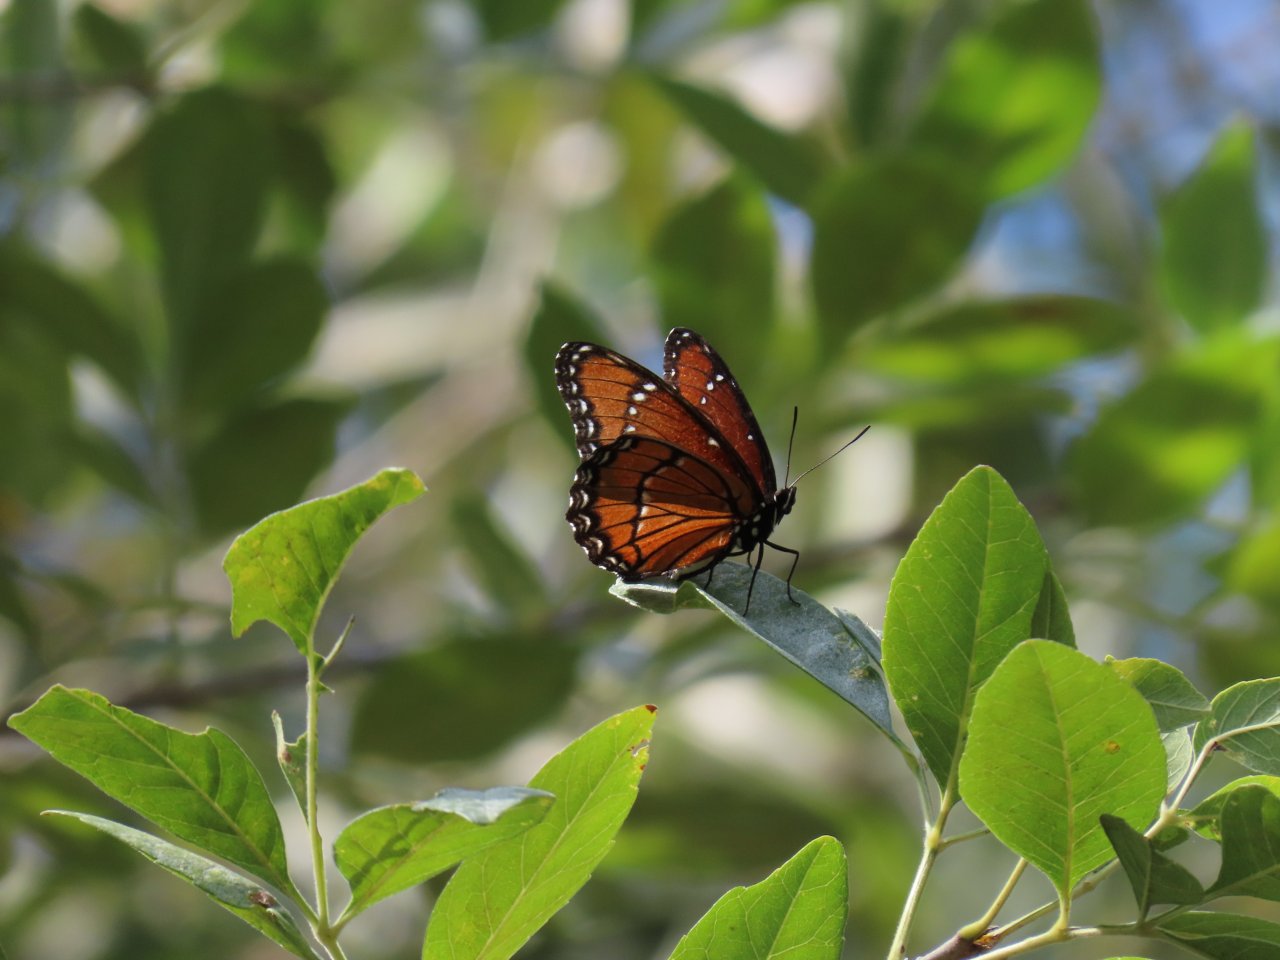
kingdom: Animalia
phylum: Arthropoda
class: Insecta
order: Lepidoptera
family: Nymphalidae
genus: Limenitis
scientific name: Limenitis archippus
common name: Viceroy
